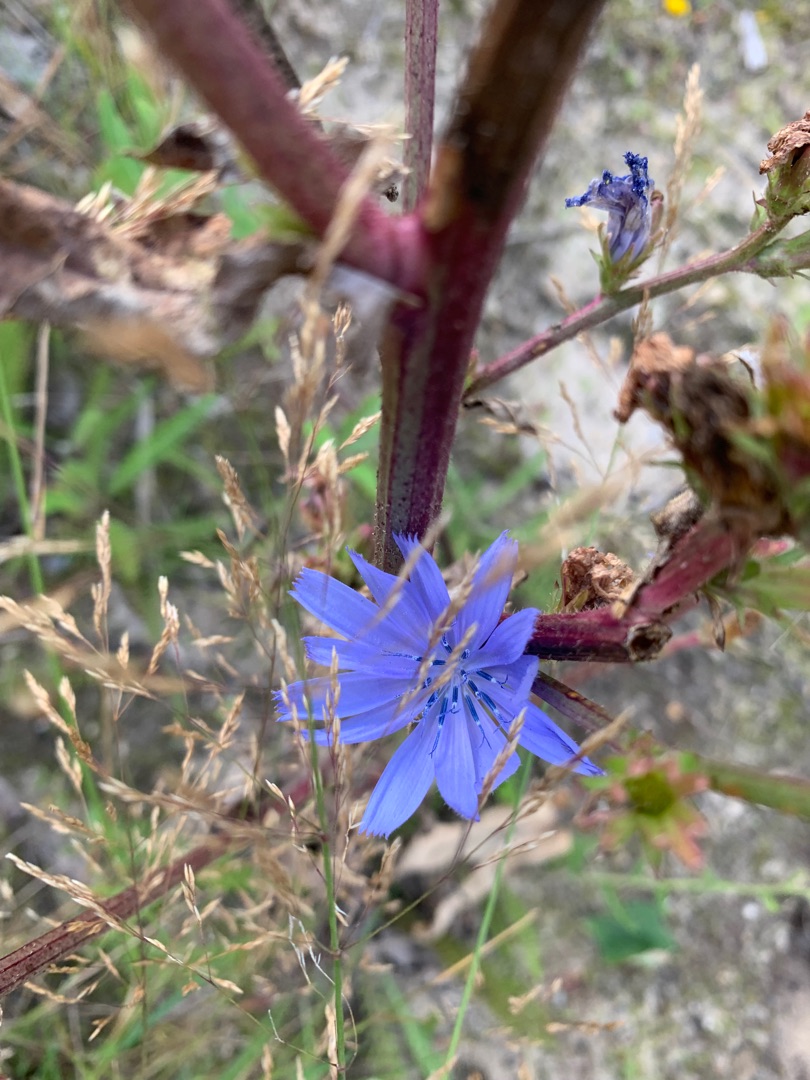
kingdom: Plantae
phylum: Tracheophyta
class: Magnoliopsida
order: Asterales
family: Asteraceae
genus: Cichorium
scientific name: Cichorium intybus
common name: Cikorie
